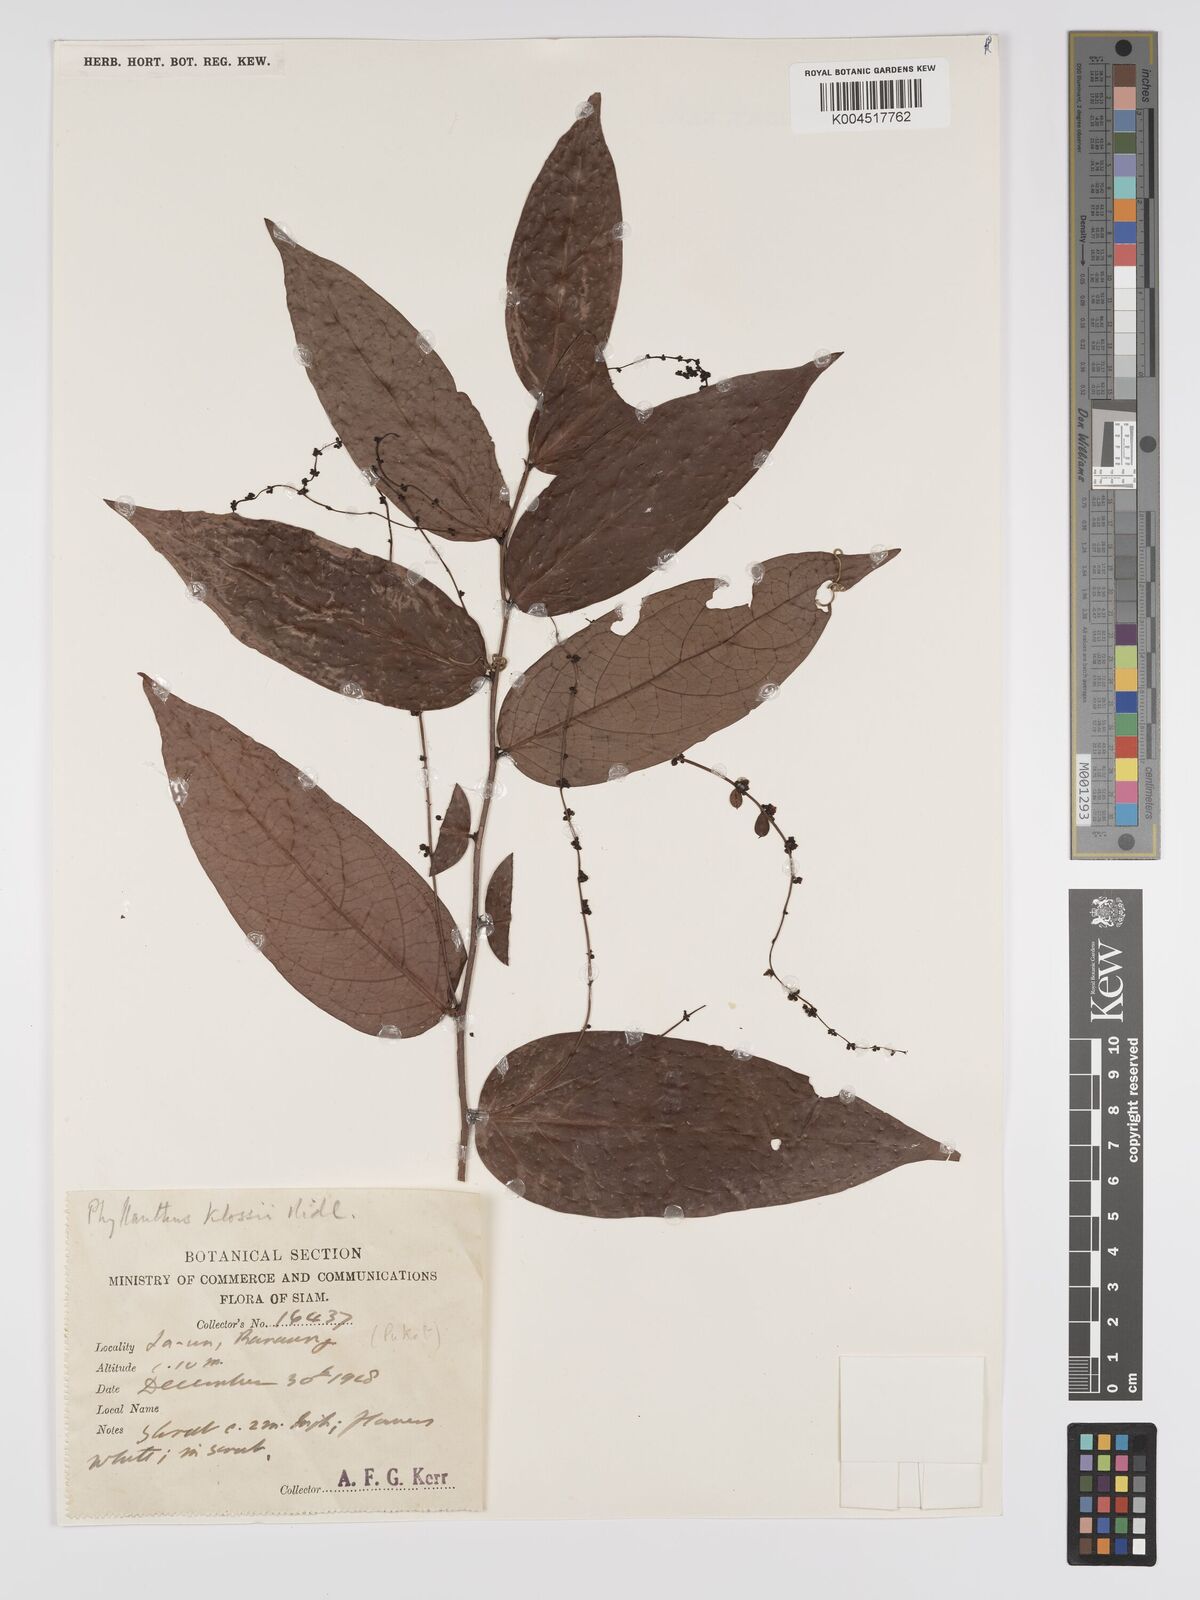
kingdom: Plantae
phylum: Tracheophyta
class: Magnoliopsida
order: Malpighiales
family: Phyllanthaceae
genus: Phyllanthus
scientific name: Phyllanthus pachyphyllus
